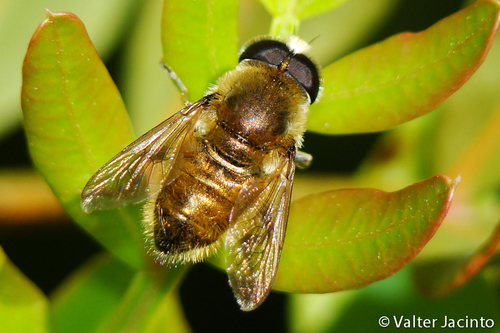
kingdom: Animalia
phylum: Arthropoda
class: Insecta
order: Diptera
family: Syrphidae
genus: Merodon
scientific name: Merodon rufus
